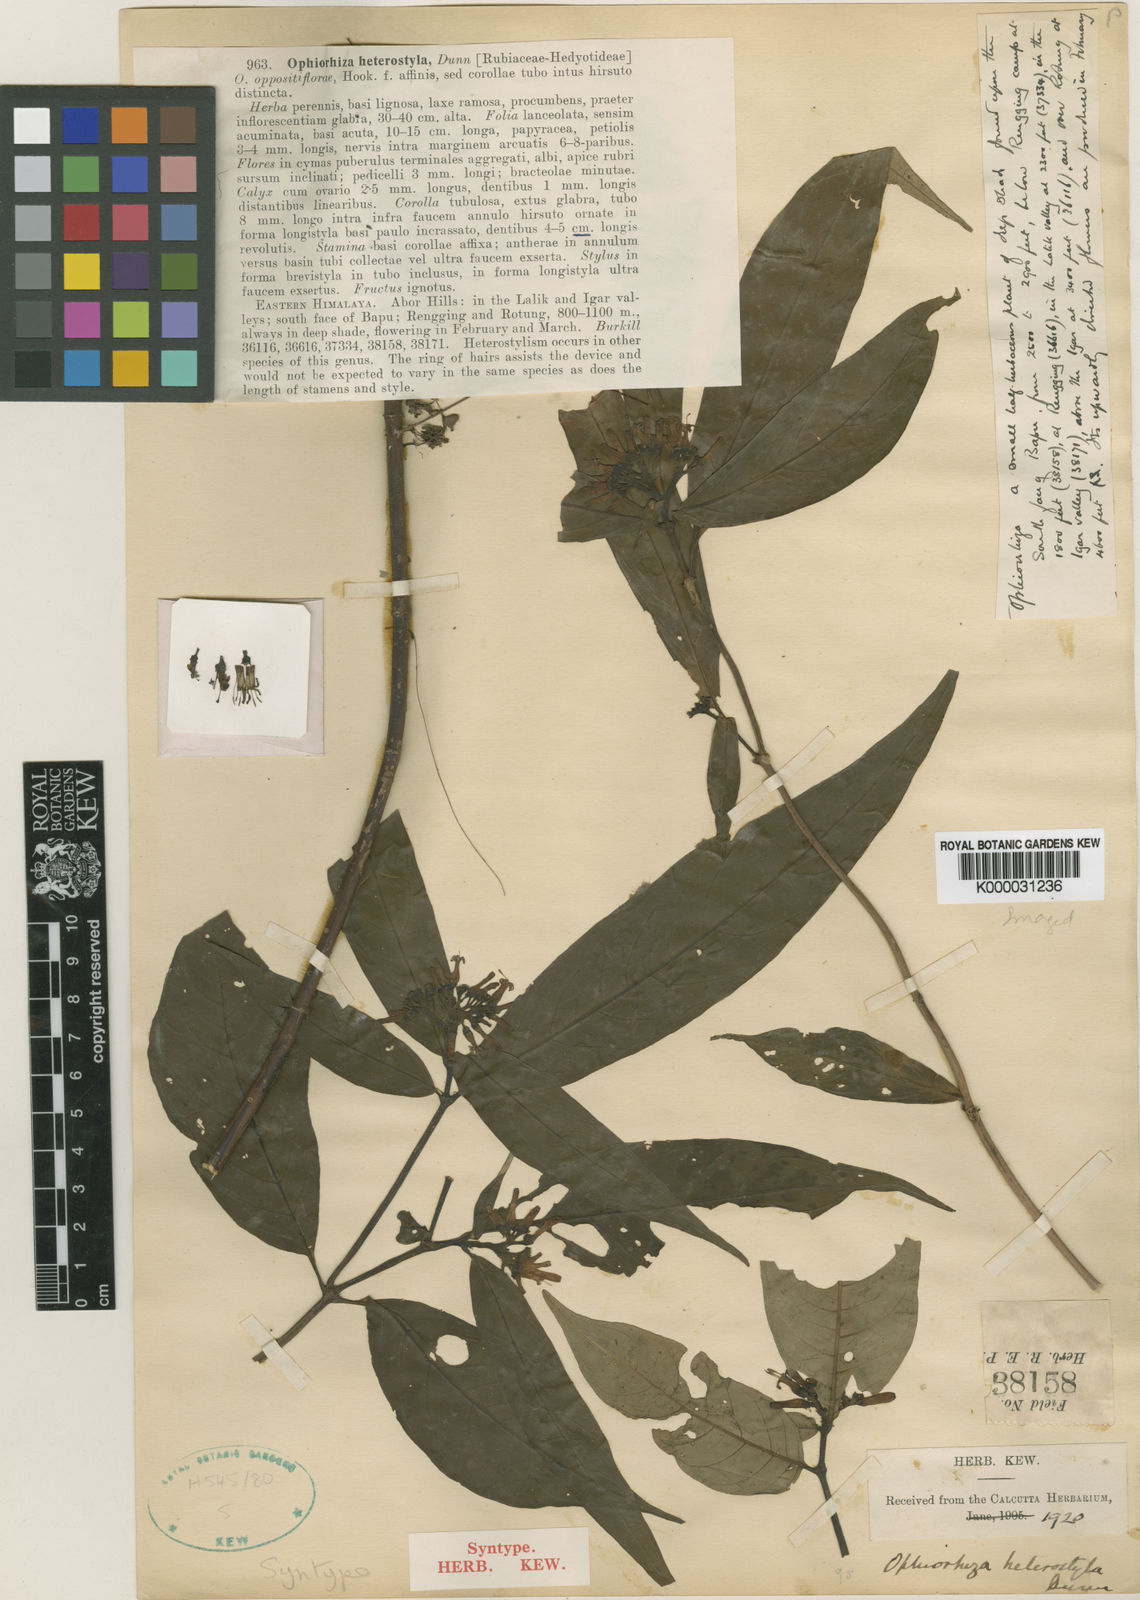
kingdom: Plantae
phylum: Tracheophyta
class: Magnoliopsida
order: Gentianales
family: Rubiaceae
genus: Ophiorrhiza
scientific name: Ophiorrhiza heterostyla
